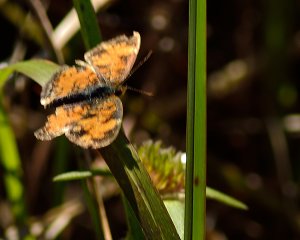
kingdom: Animalia
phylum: Arthropoda
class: Insecta
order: Lepidoptera
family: Nymphalidae
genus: Phyciodes
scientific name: Phyciodes tharos
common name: Pearl Crescent
